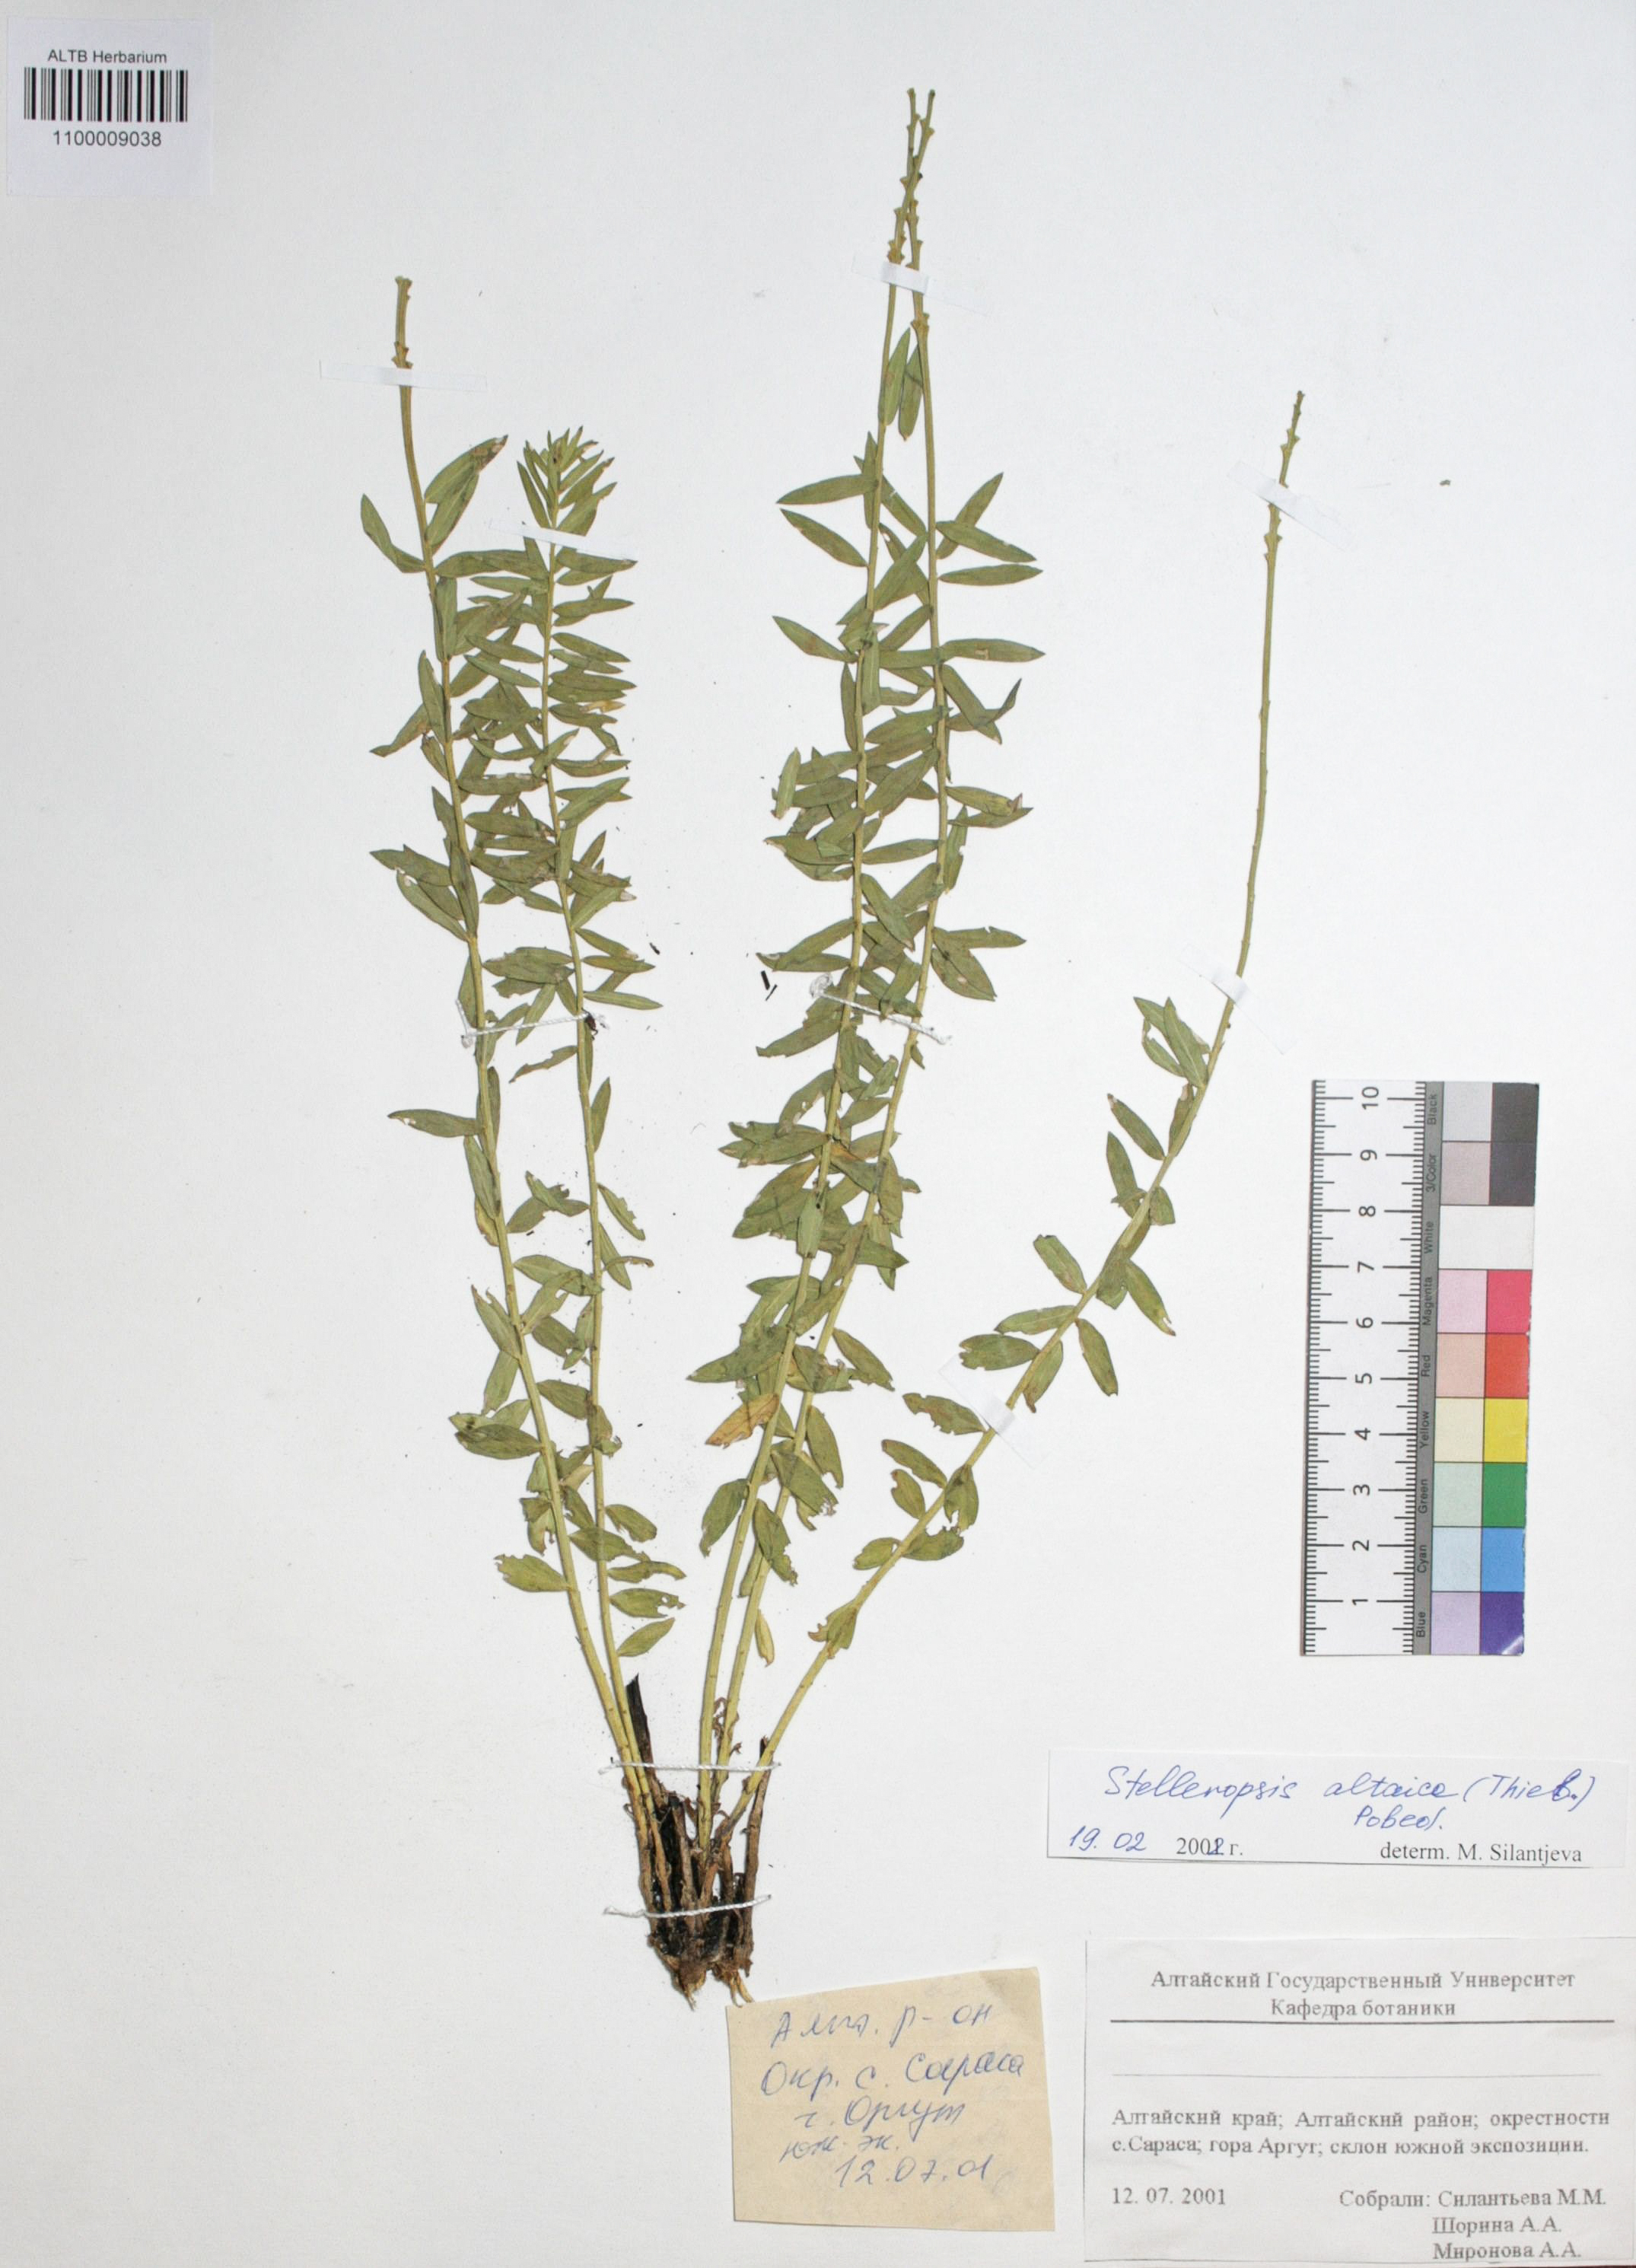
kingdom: Plantae
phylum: Tracheophyta
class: Magnoliopsida
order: Malvales
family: Thymelaeaceae
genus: Diarthron
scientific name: Diarthron altaicum
